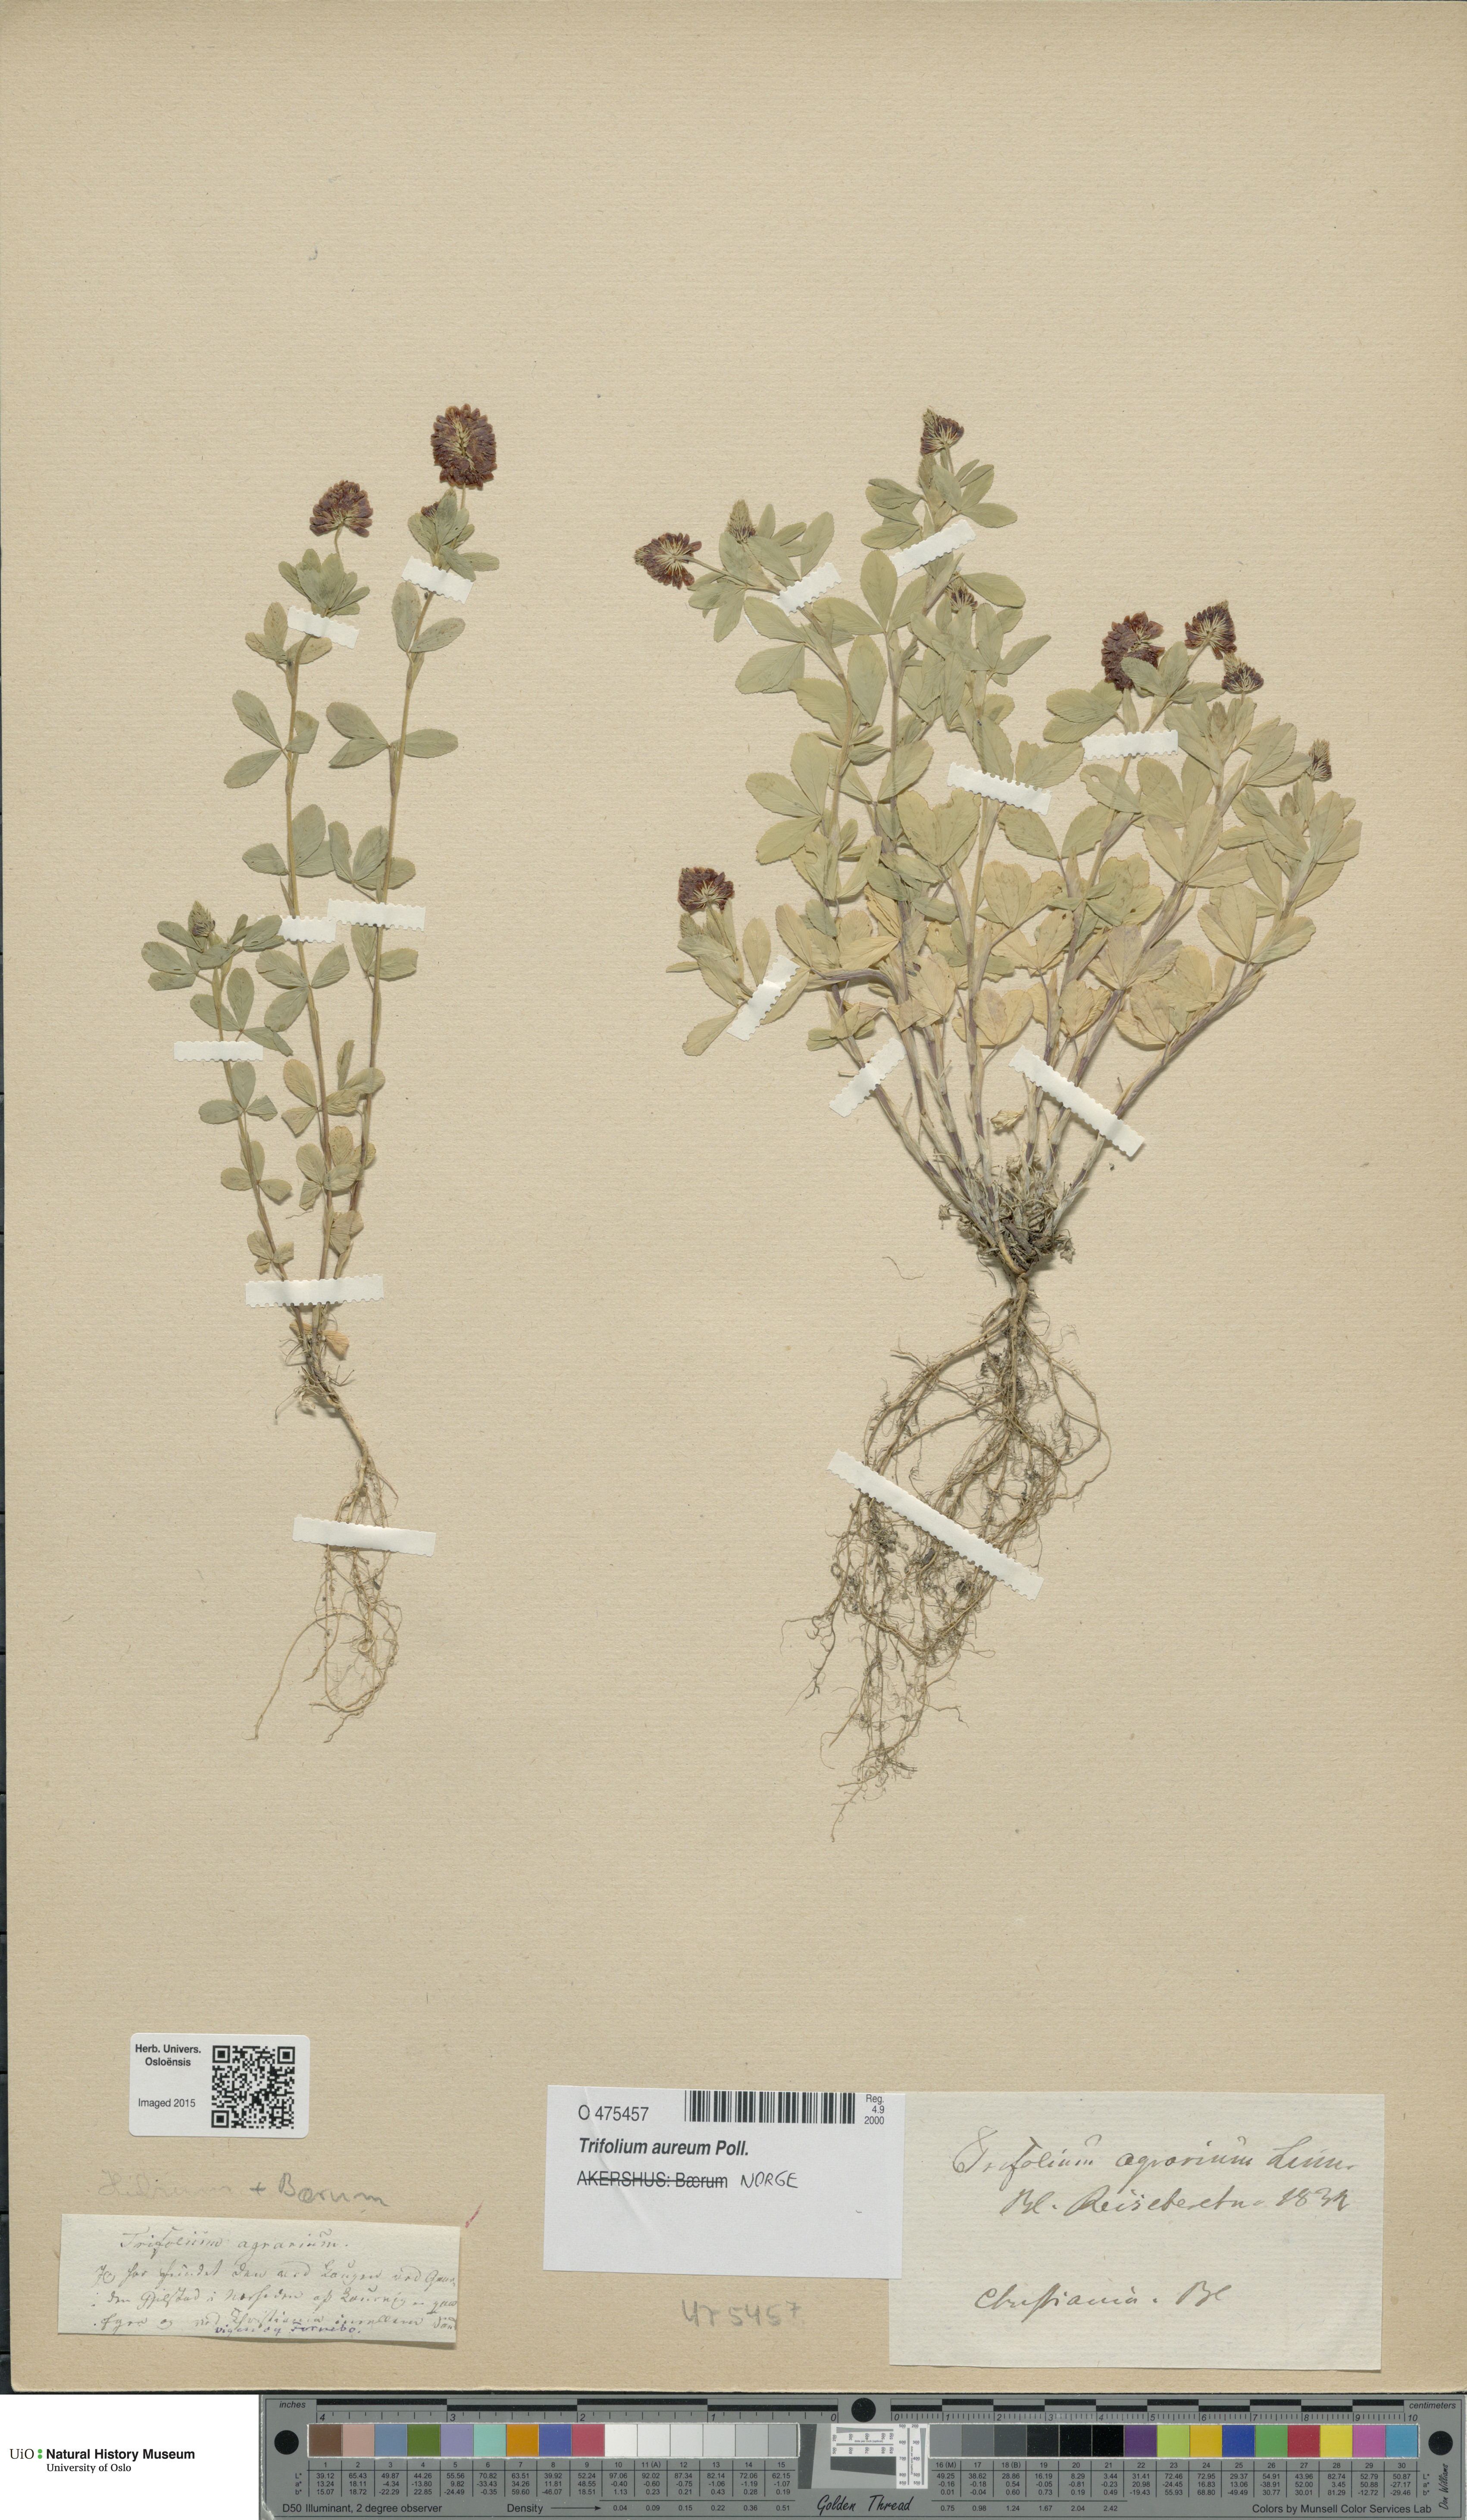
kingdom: Plantae
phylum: Tracheophyta
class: Magnoliopsida
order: Fabales
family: Fabaceae
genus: Trifolium
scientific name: Trifolium aureum
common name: Golden clover
